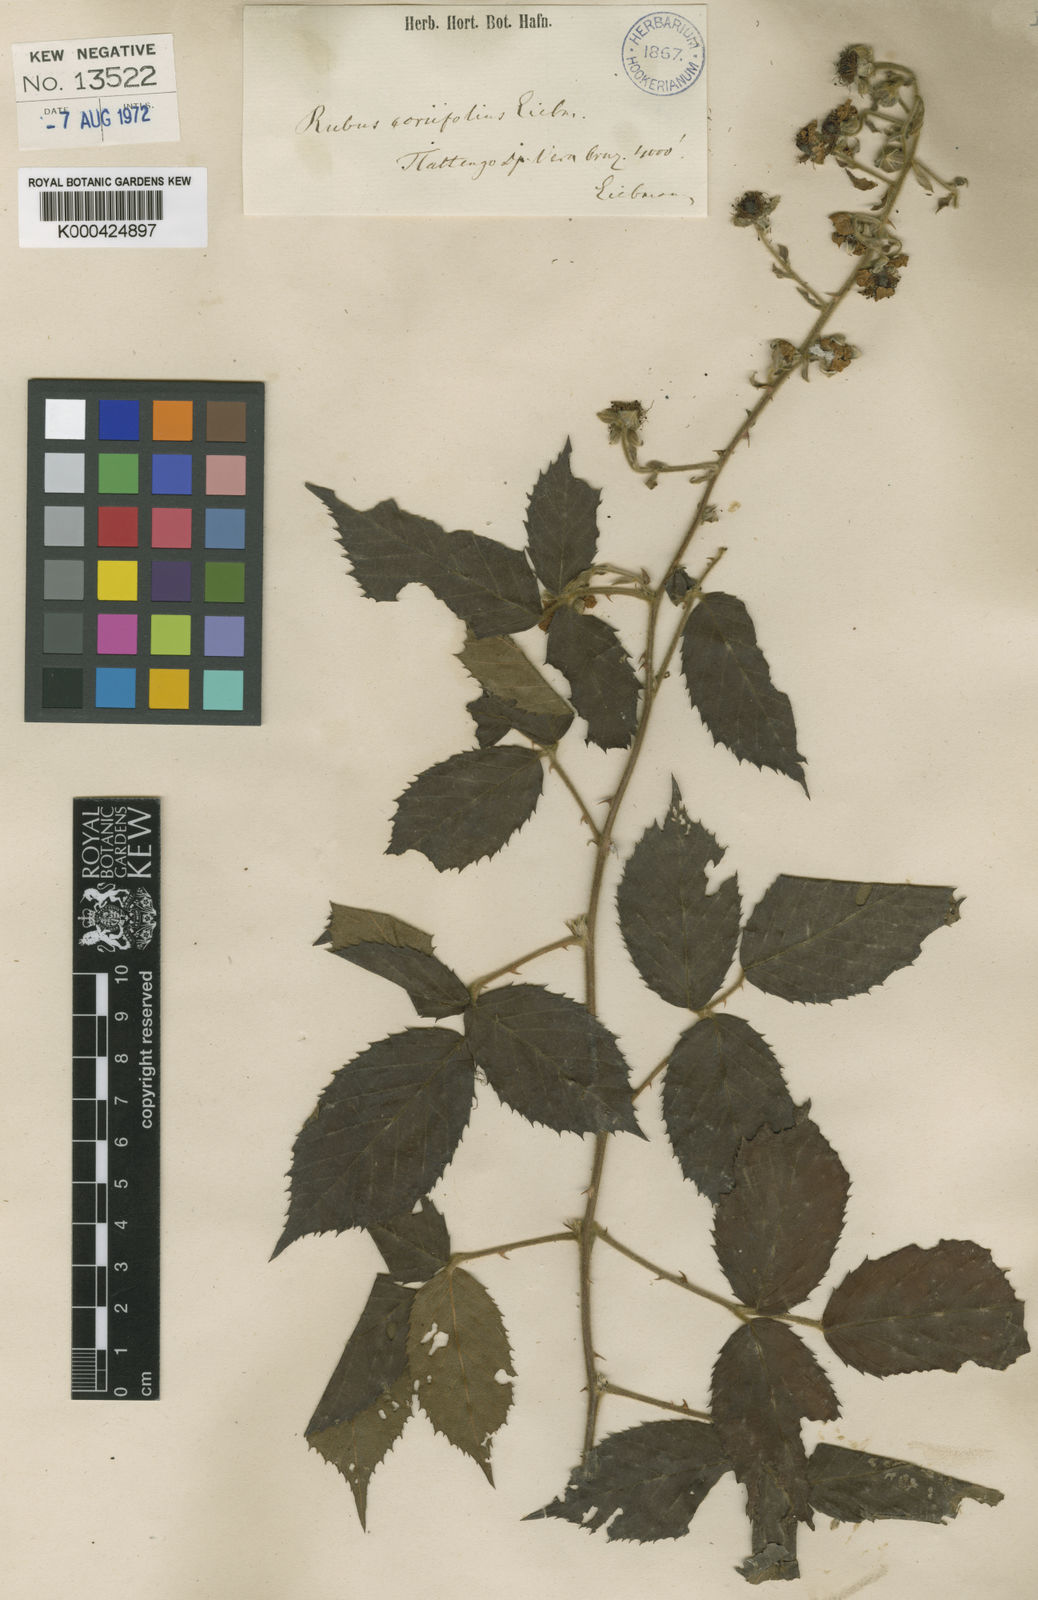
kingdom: Plantae
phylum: Tracheophyta
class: Magnoliopsida
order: Rosales
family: Rosaceae
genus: Rubus
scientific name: Rubus coriifolius
